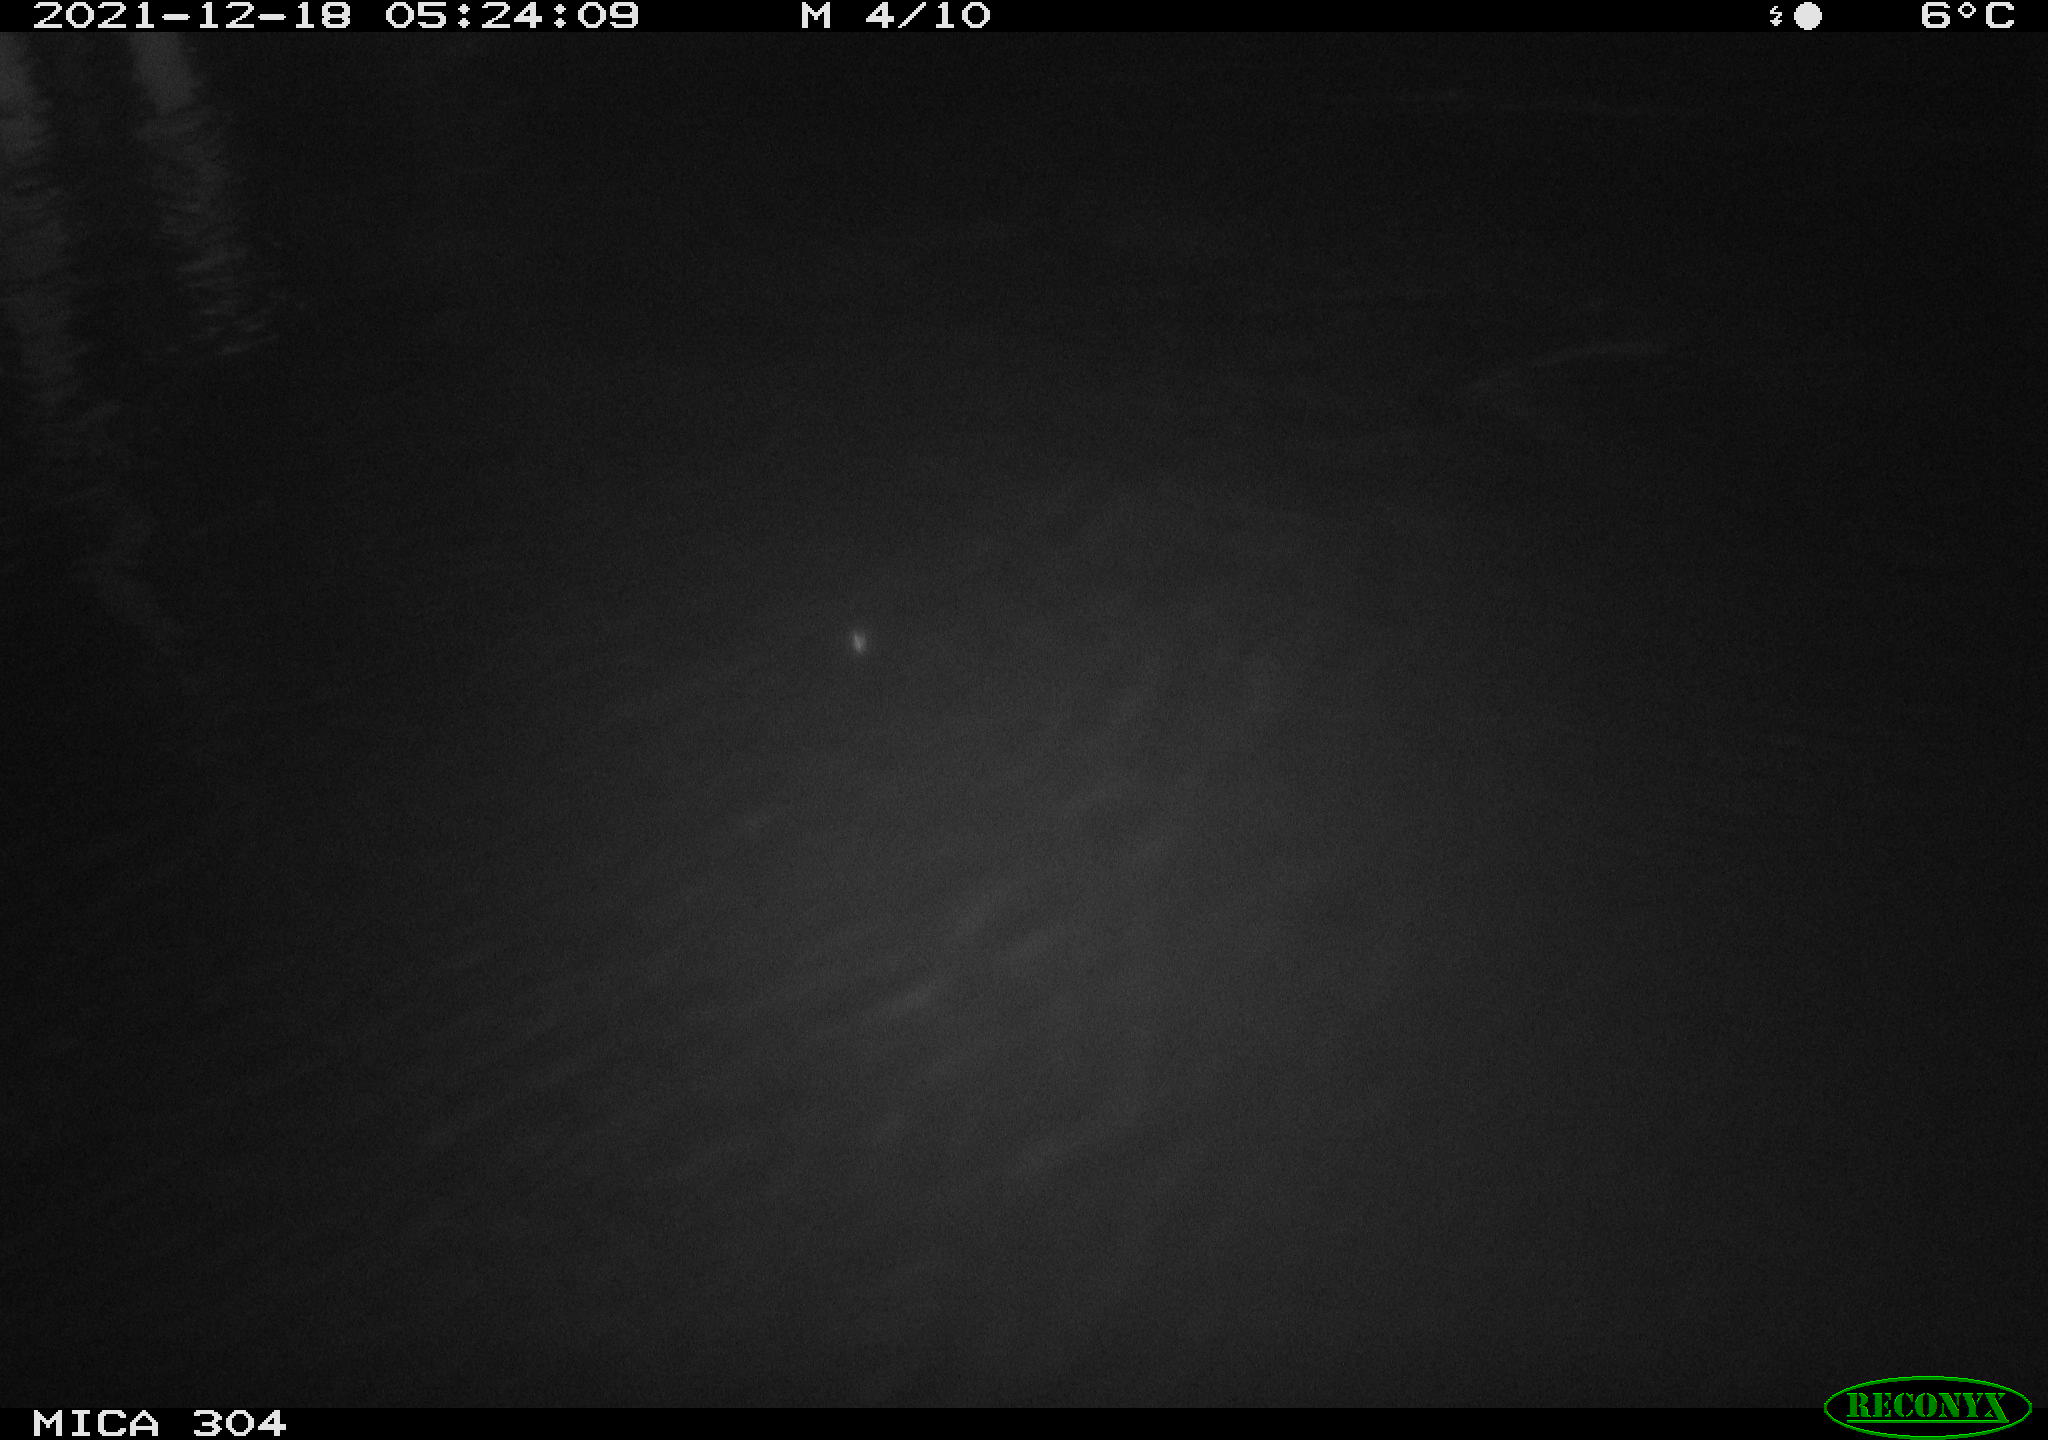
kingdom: Animalia
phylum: Chordata
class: Mammalia
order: Rodentia
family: Muridae
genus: Rattus
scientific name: Rattus norvegicus
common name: Brown rat
